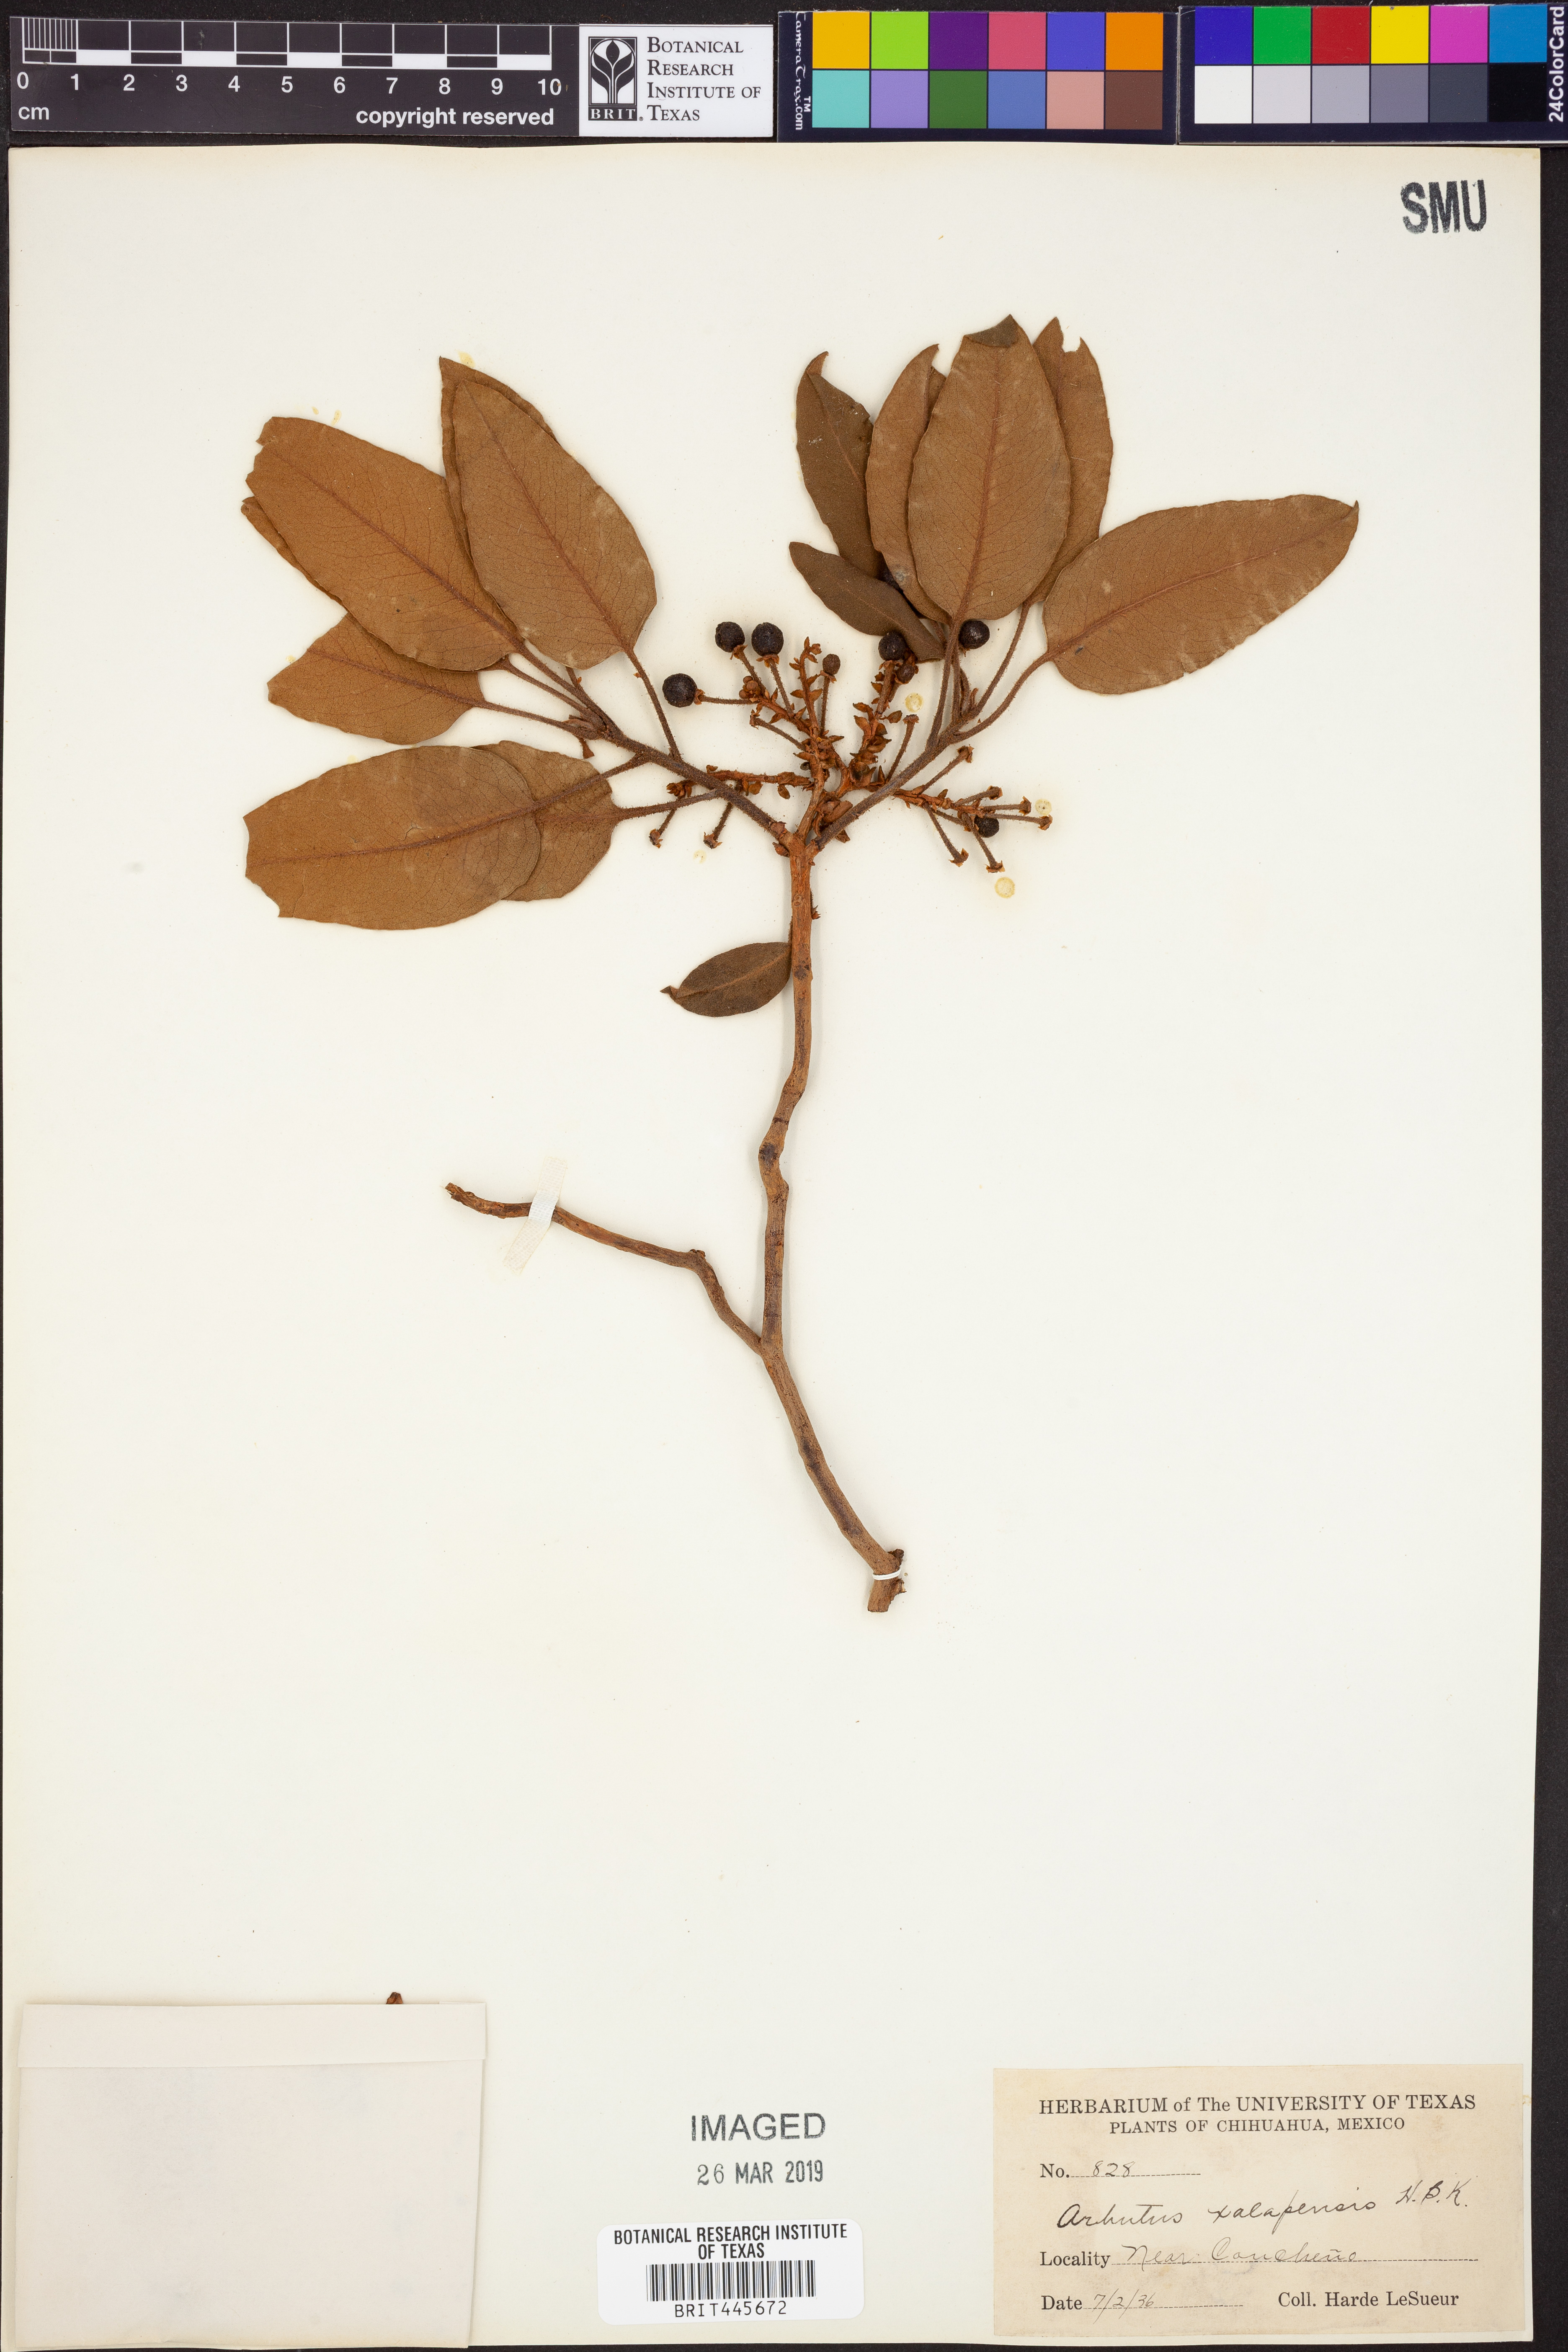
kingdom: Plantae
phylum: Tracheophyta
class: Magnoliopsida
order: Ericales
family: Ericaceae
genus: Arbutus
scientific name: Arbutus xalapensis
